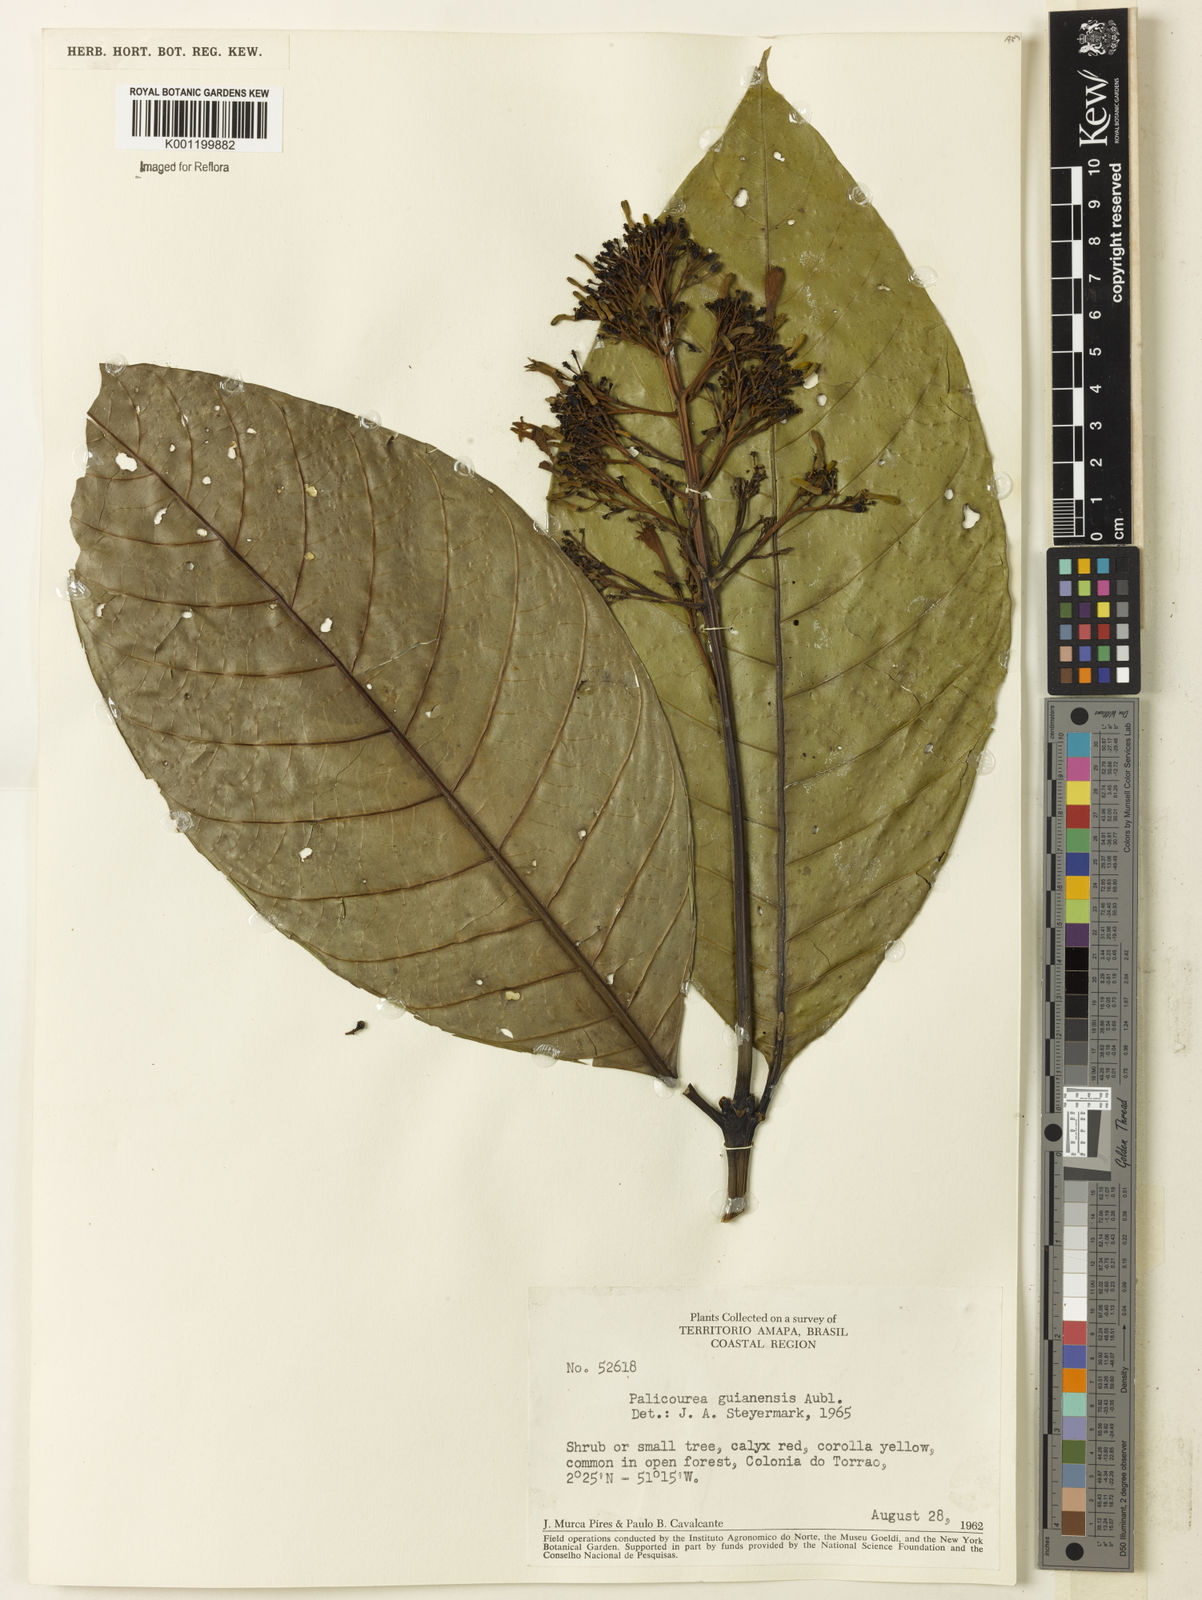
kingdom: Plantae
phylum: Tracheophyta
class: Magnoliopsida
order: Gentianales
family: Rubiaceae
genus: Palicourea
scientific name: Palicourea guianensis
